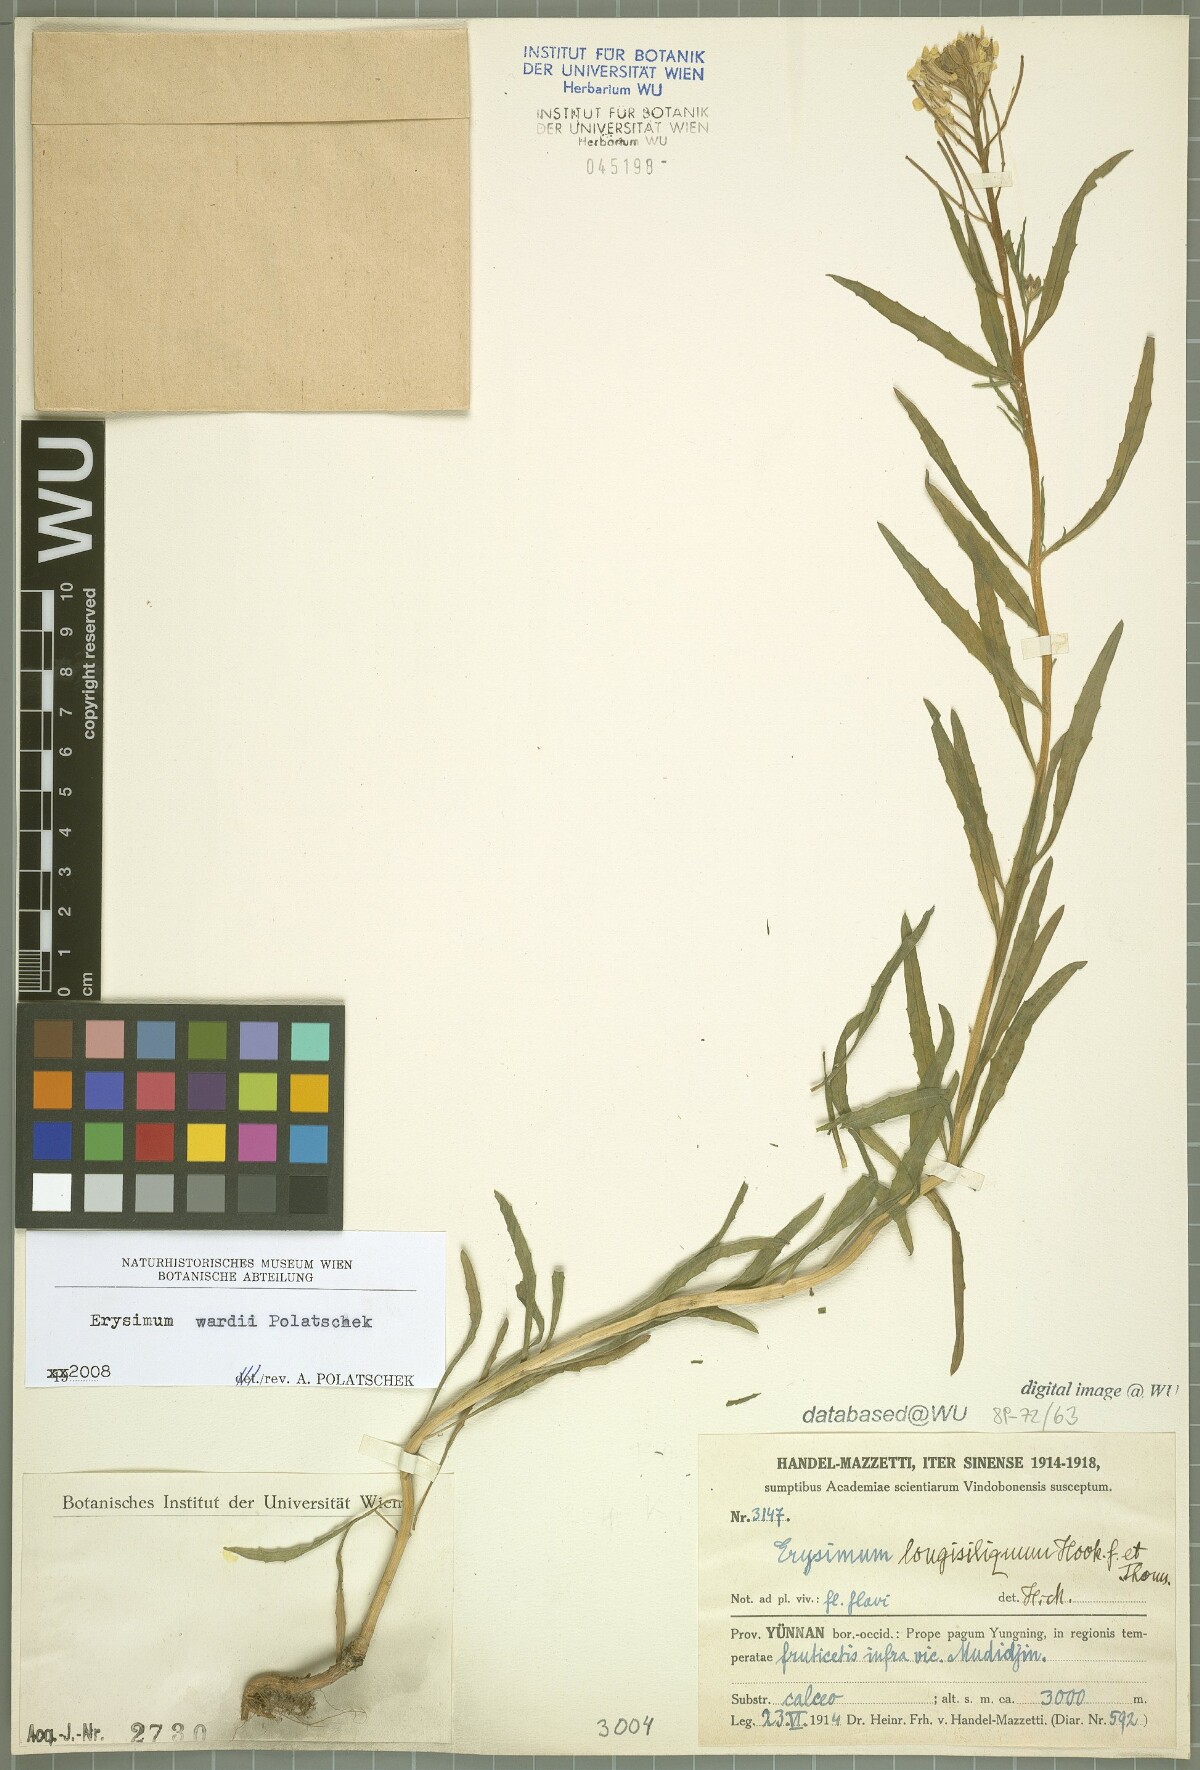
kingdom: Plantae
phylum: Tracheophyta
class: Magnoliopsida
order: Brassicales
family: Brassicaceae
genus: Erysimum
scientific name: Erysimum wardii
